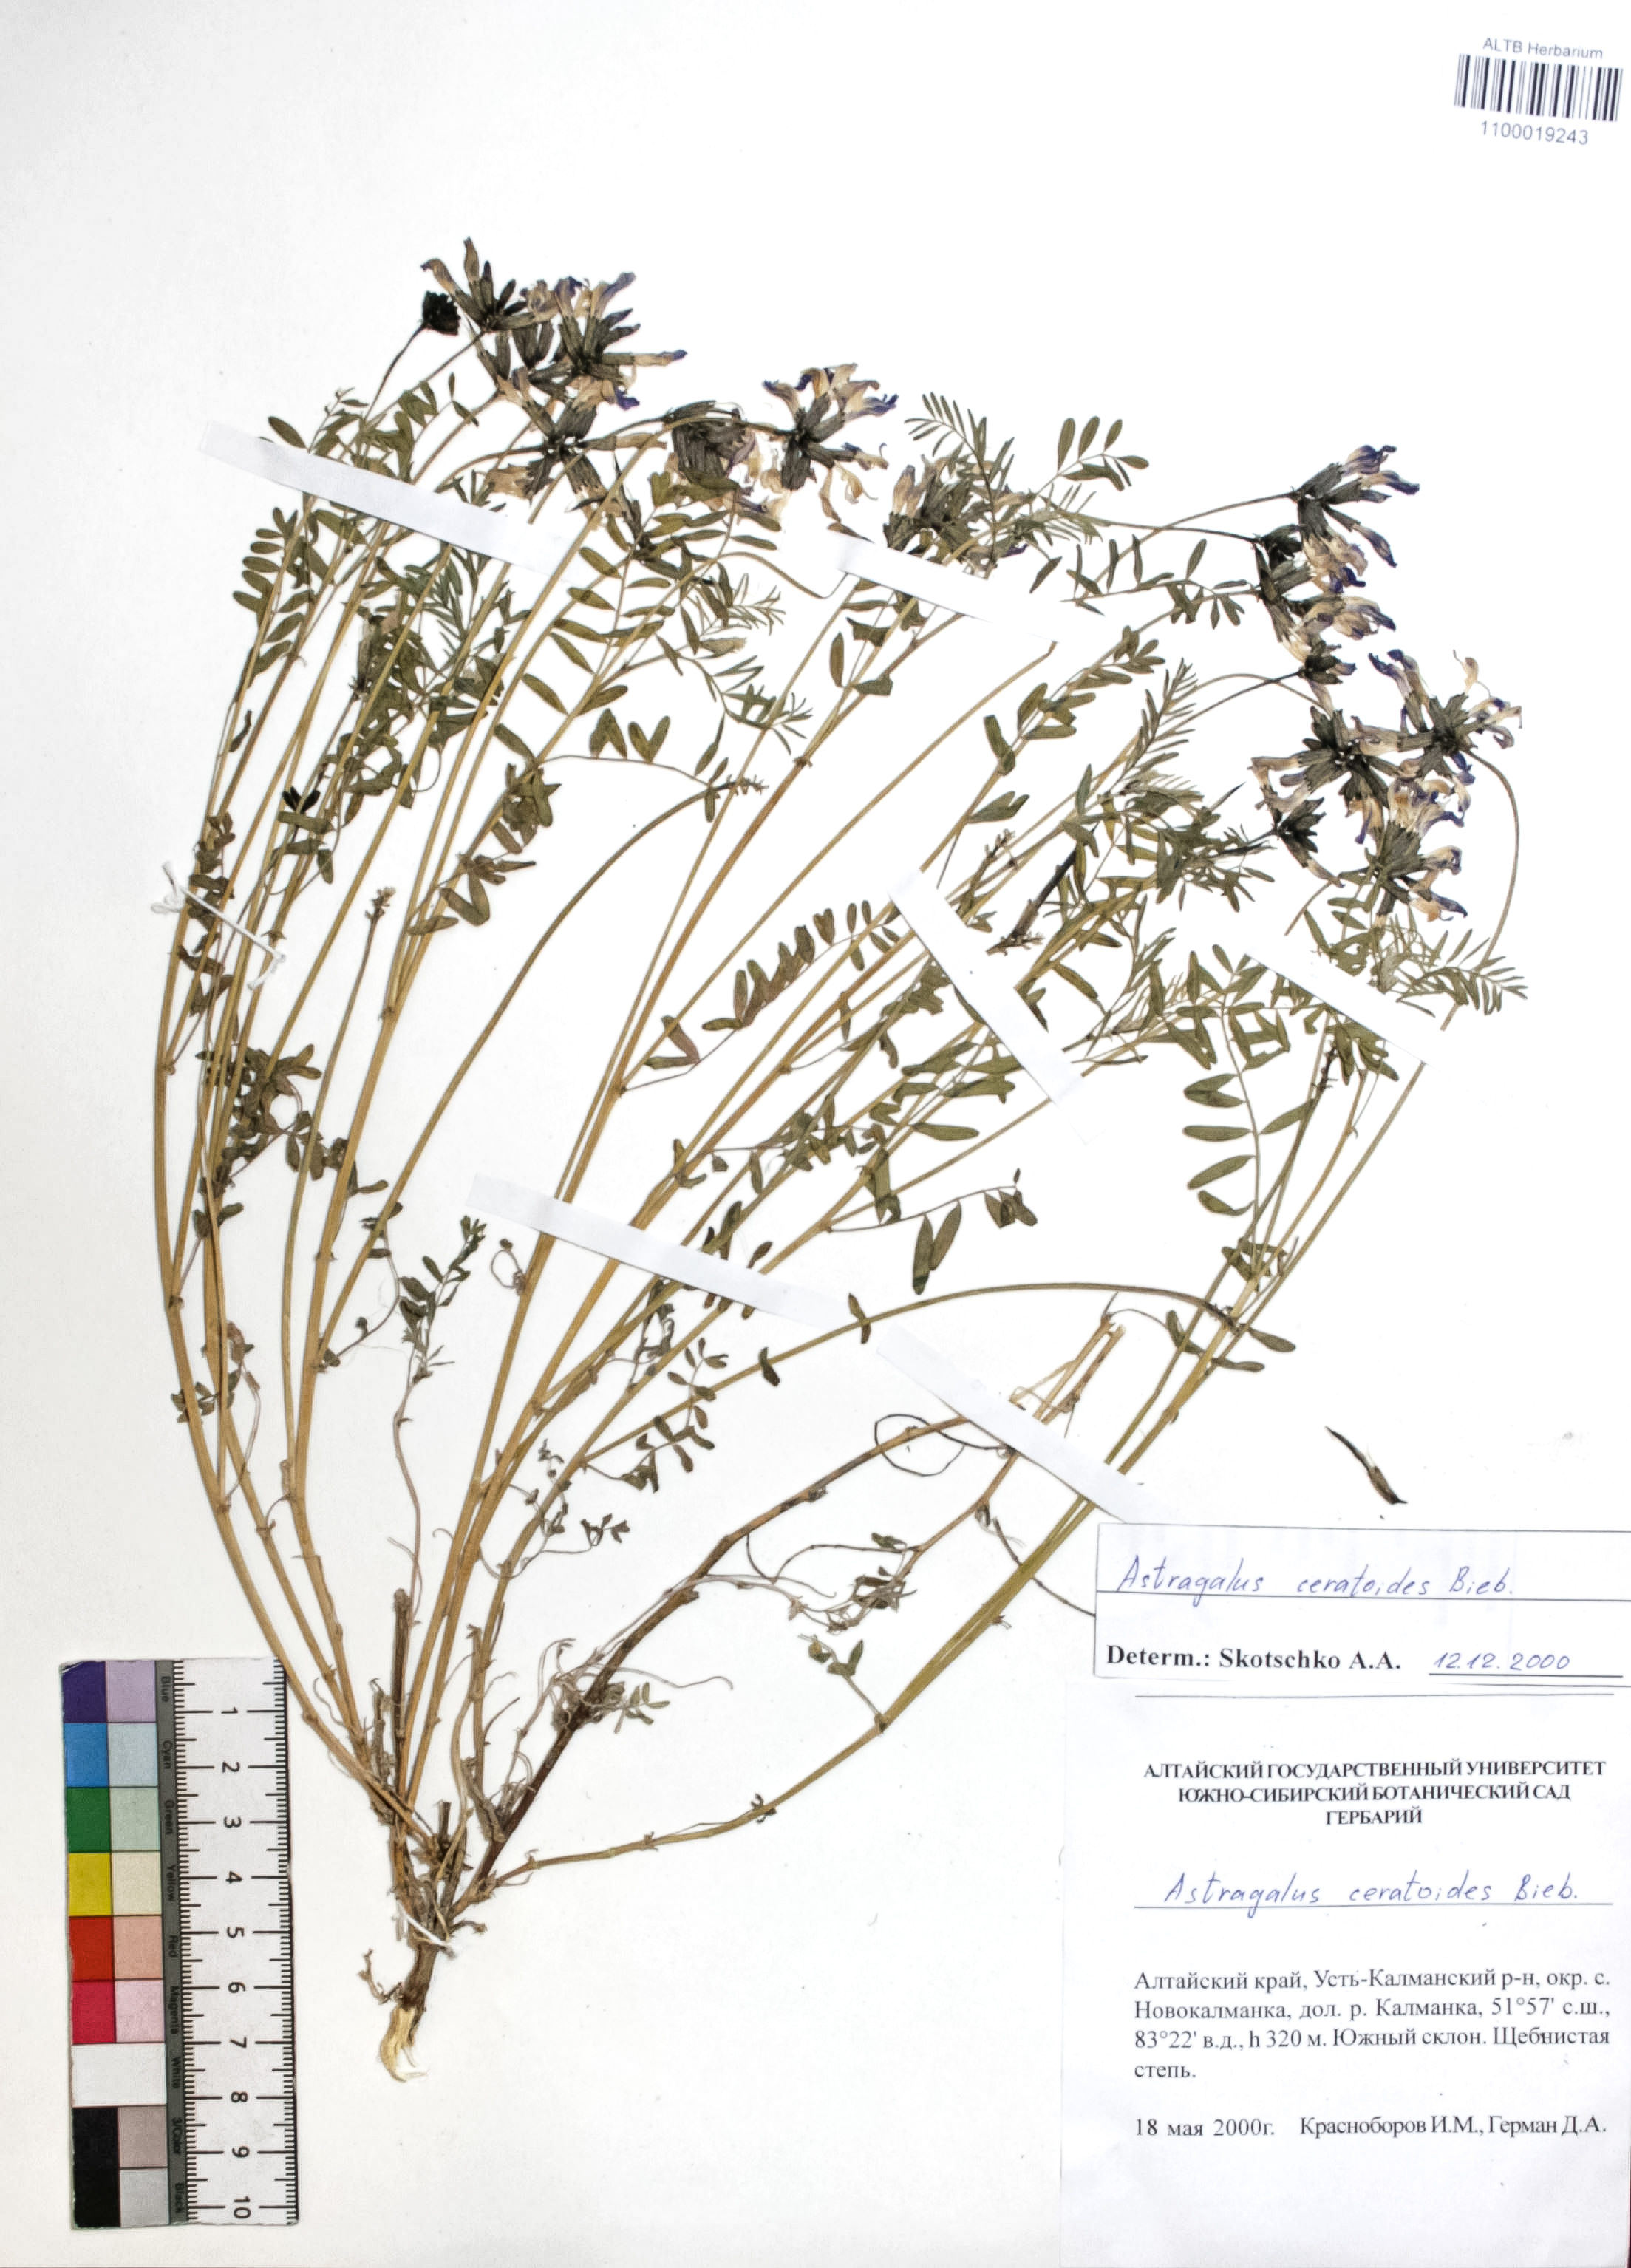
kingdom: Plantae
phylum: Tracheophyta
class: Magnoliopsida
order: Fabales
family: Fabaceae
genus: Astragalus
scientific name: Astragalus ceratoides
